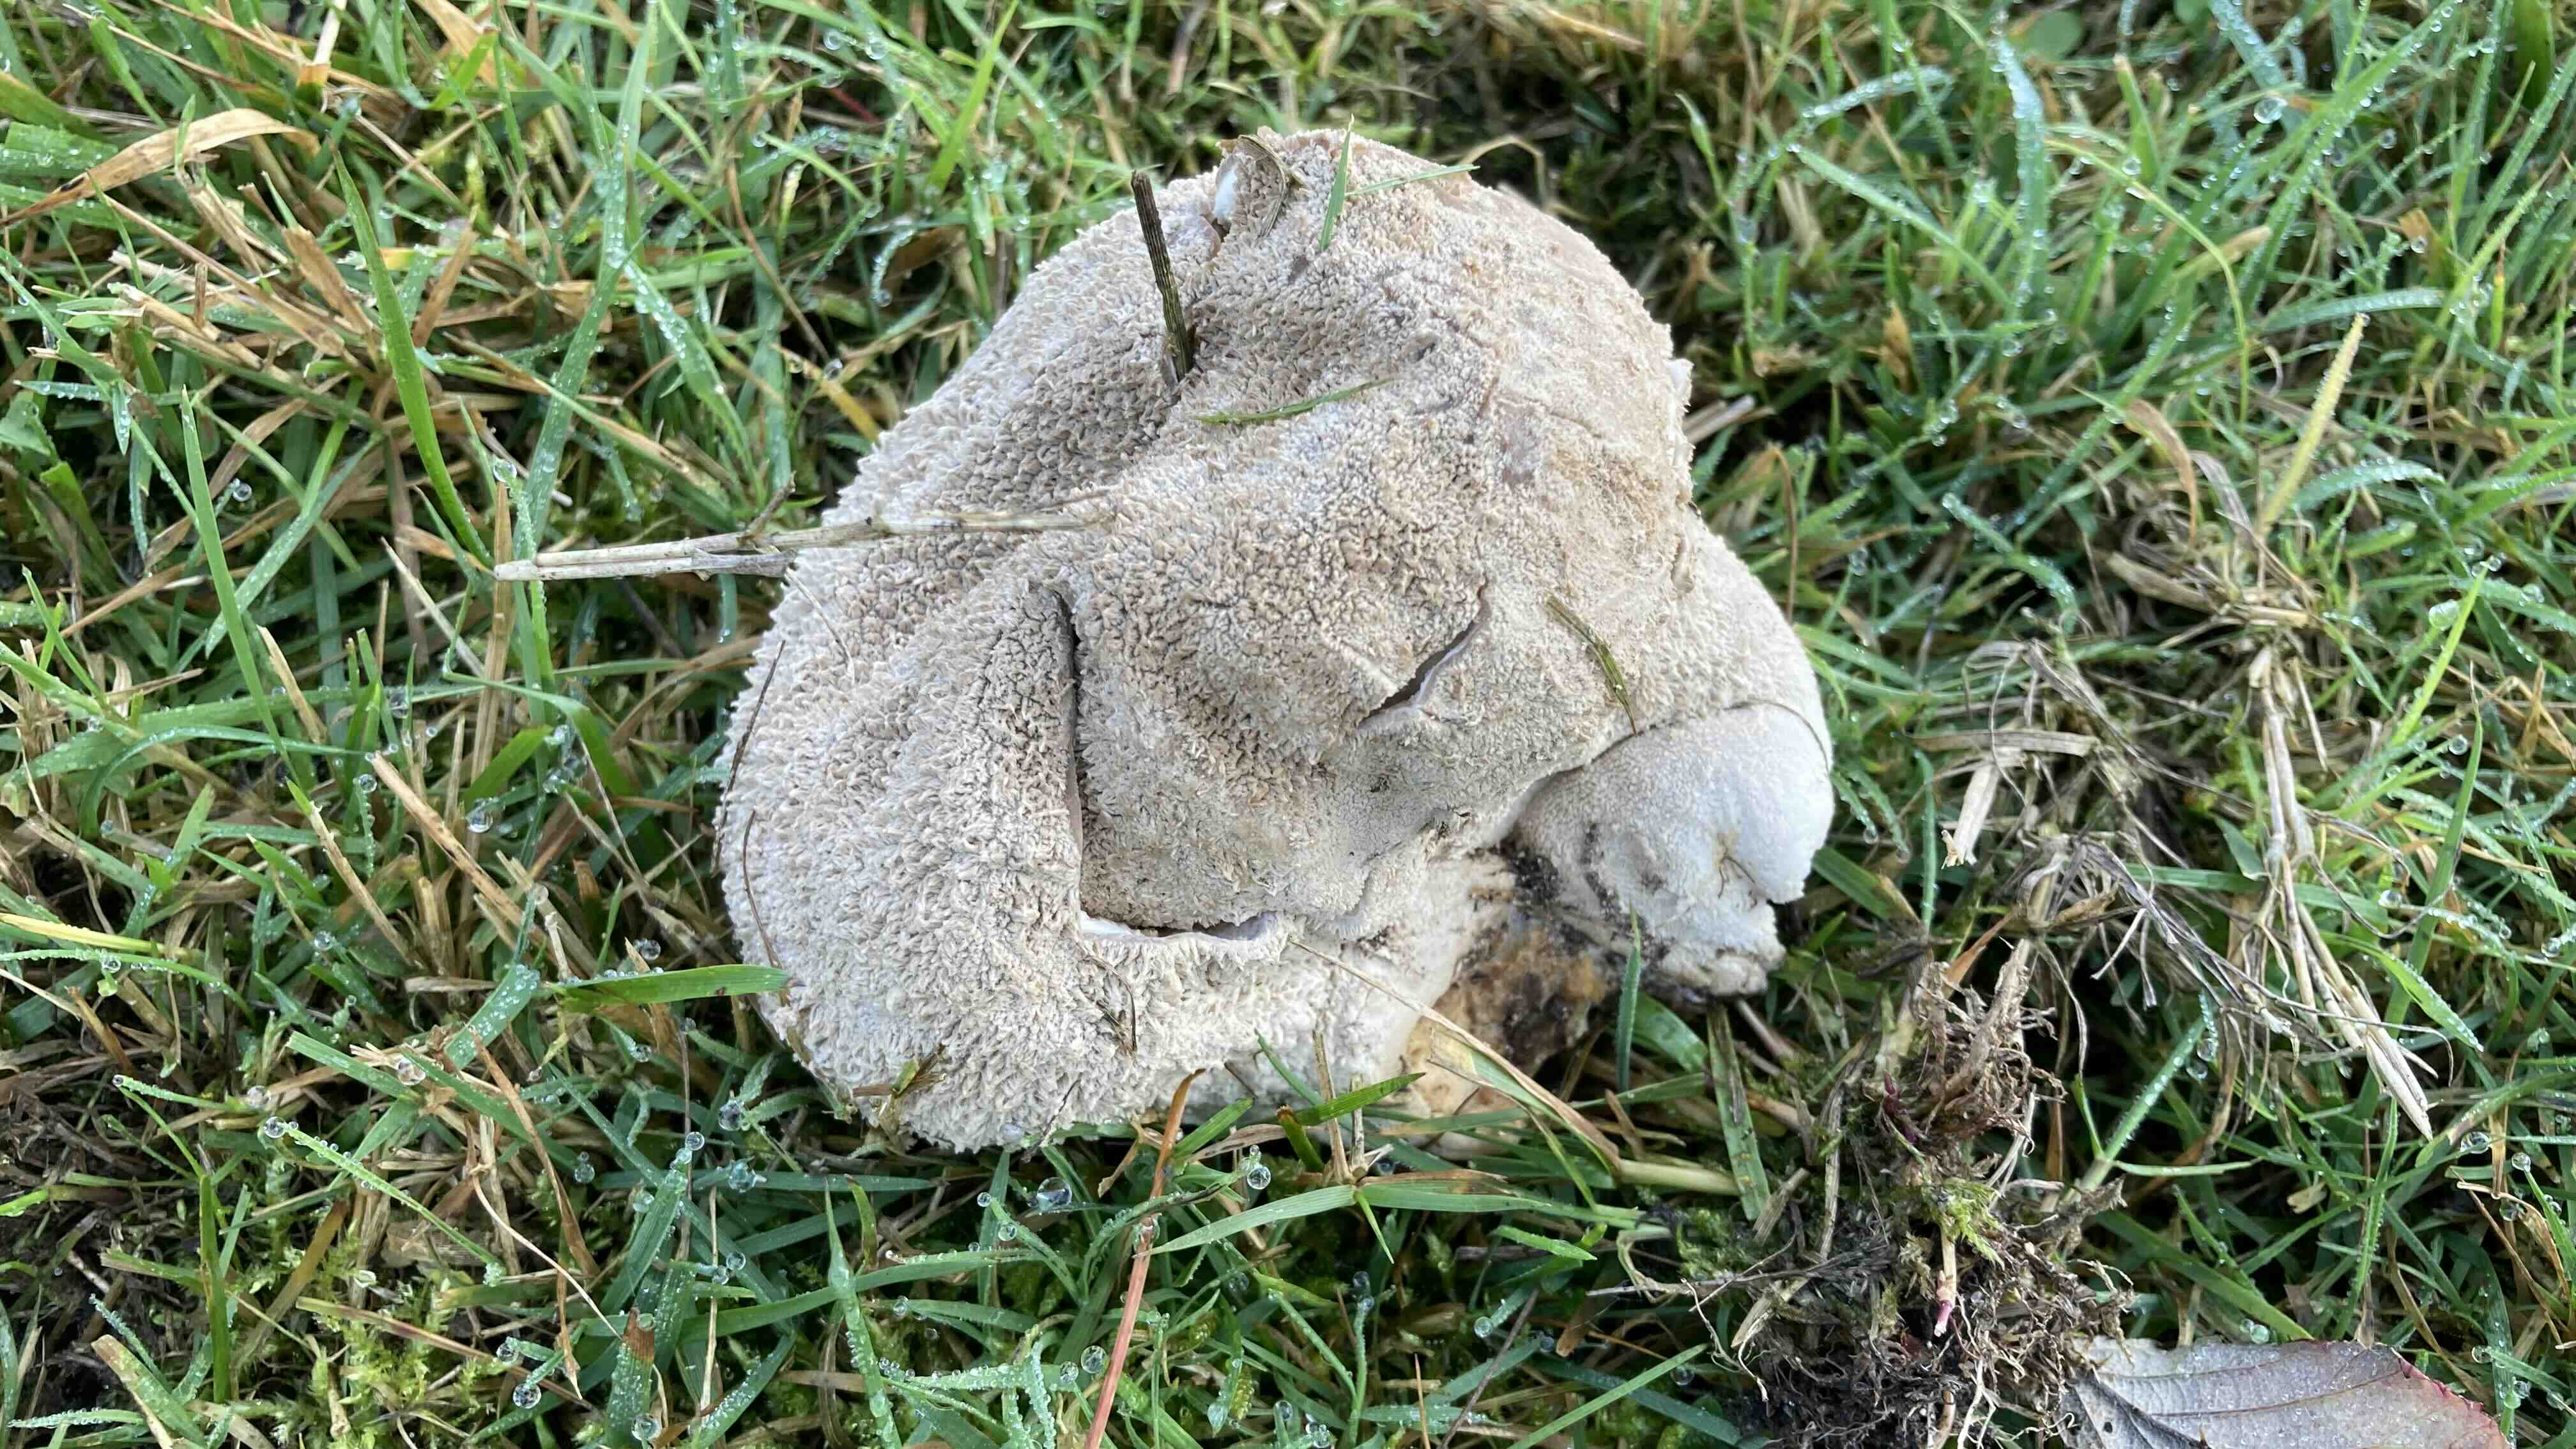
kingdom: Fungi
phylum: Basidiomycota
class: Agaricomycetes
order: Agaricales
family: Lycoperdaceae
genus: Bovistella
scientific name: Bovistella utriformis
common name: skællet støvbold
